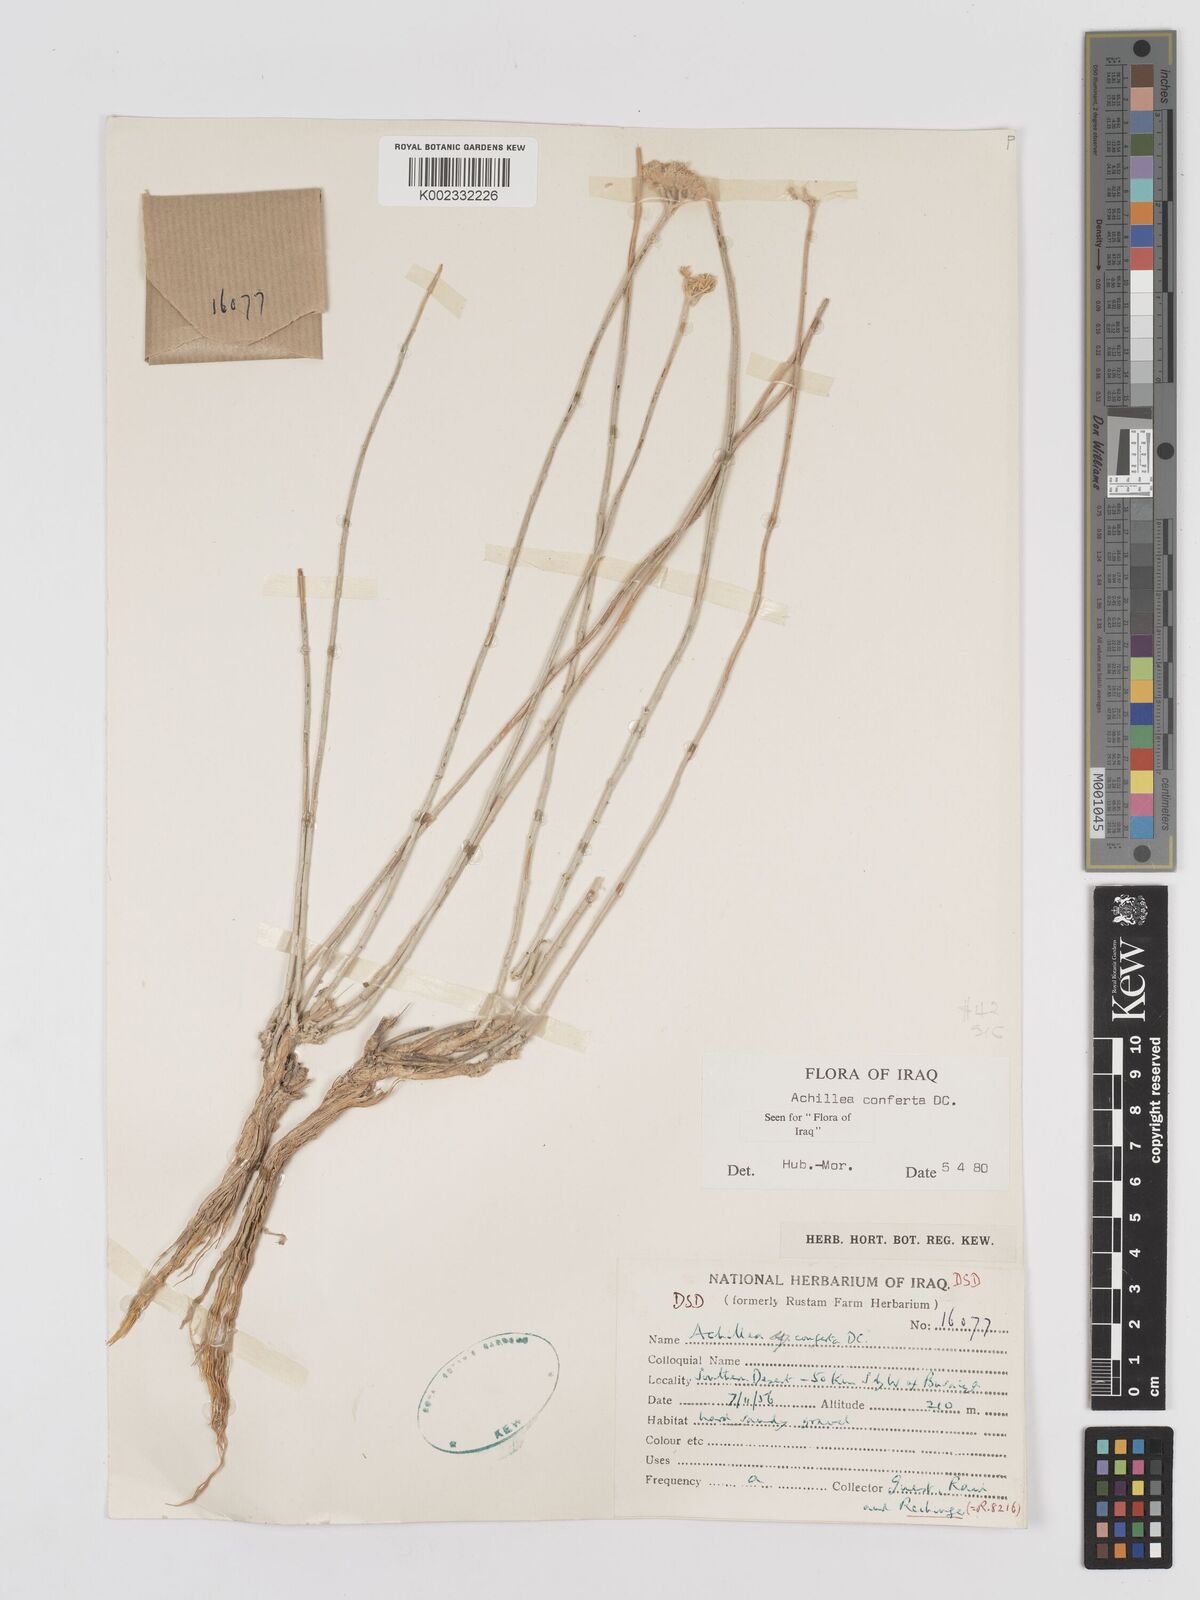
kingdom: Plantae
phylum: Tracheophyta
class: Magnoliopsida
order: Asterales
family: Asteraceae
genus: Achillea
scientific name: Achillea conferta
